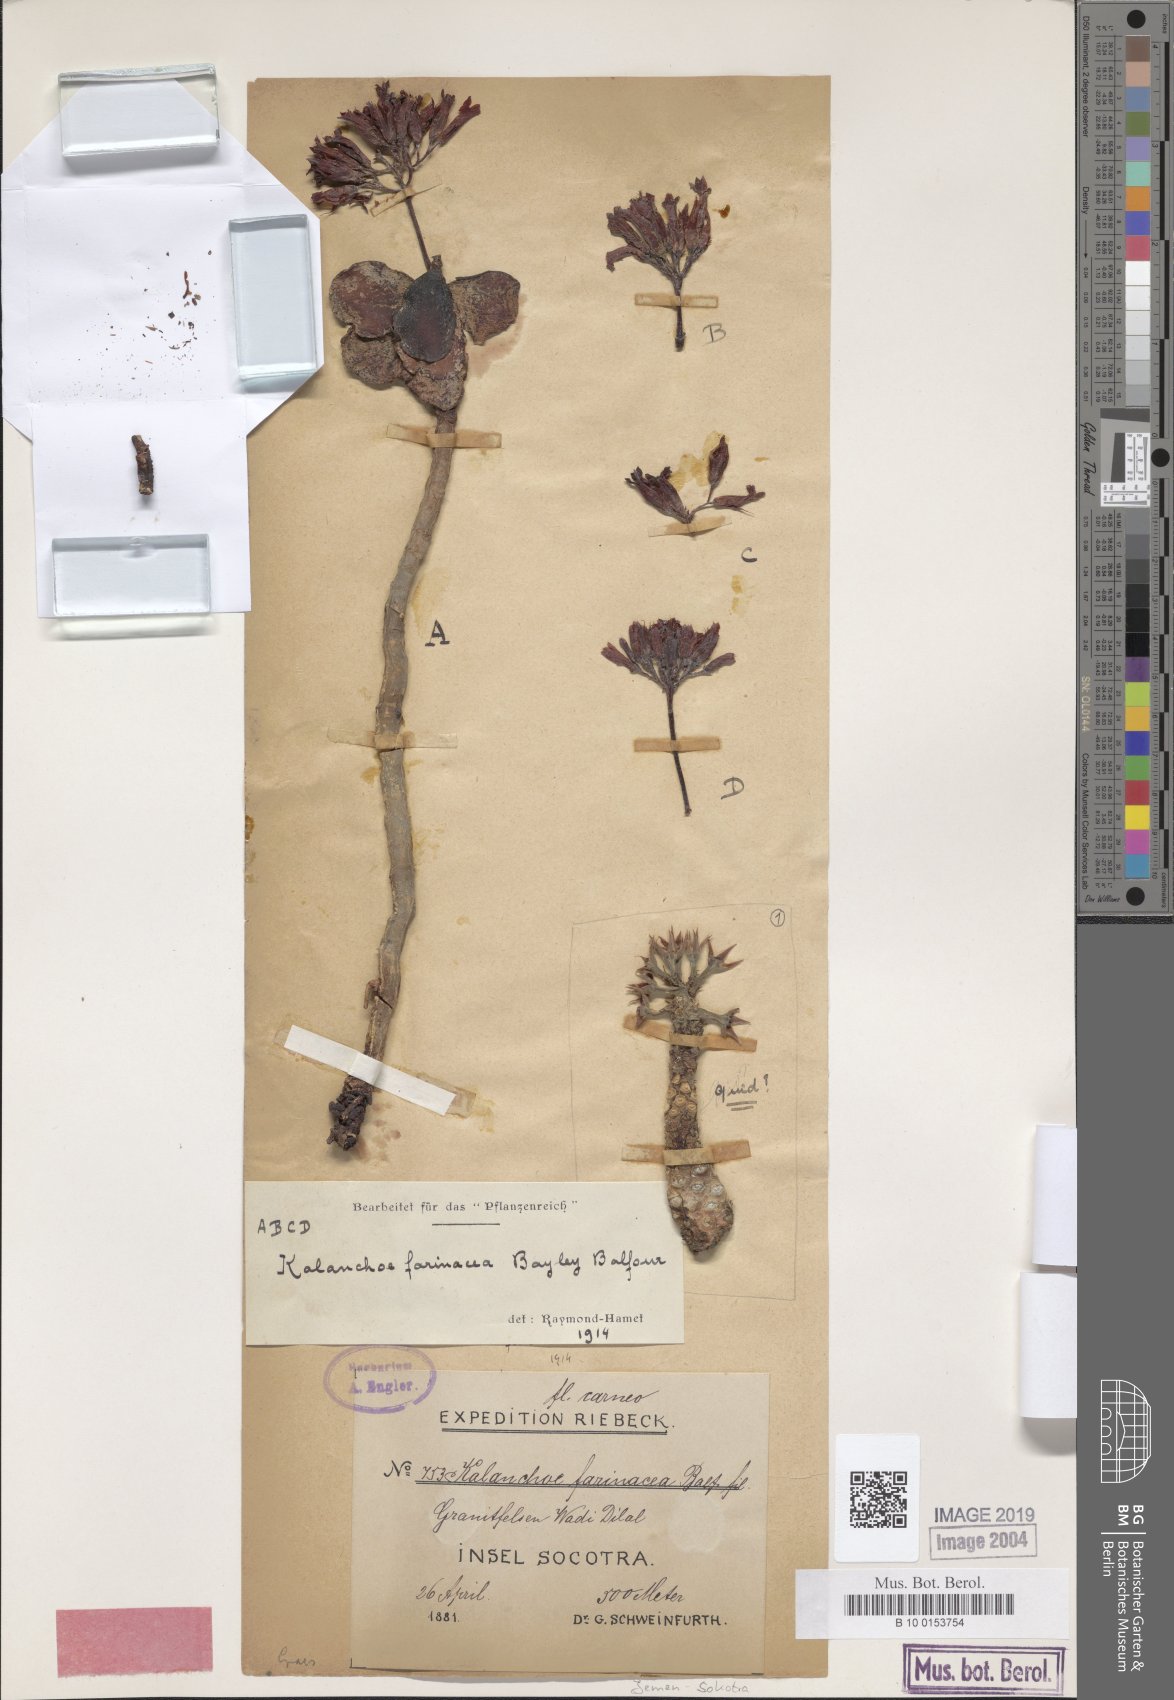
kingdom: Plantae
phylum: Tracheophyta
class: Magnoliopsida
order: Gentianales
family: Apocynaceae
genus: Adenium
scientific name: Adenium obesum
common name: Desert-rose
